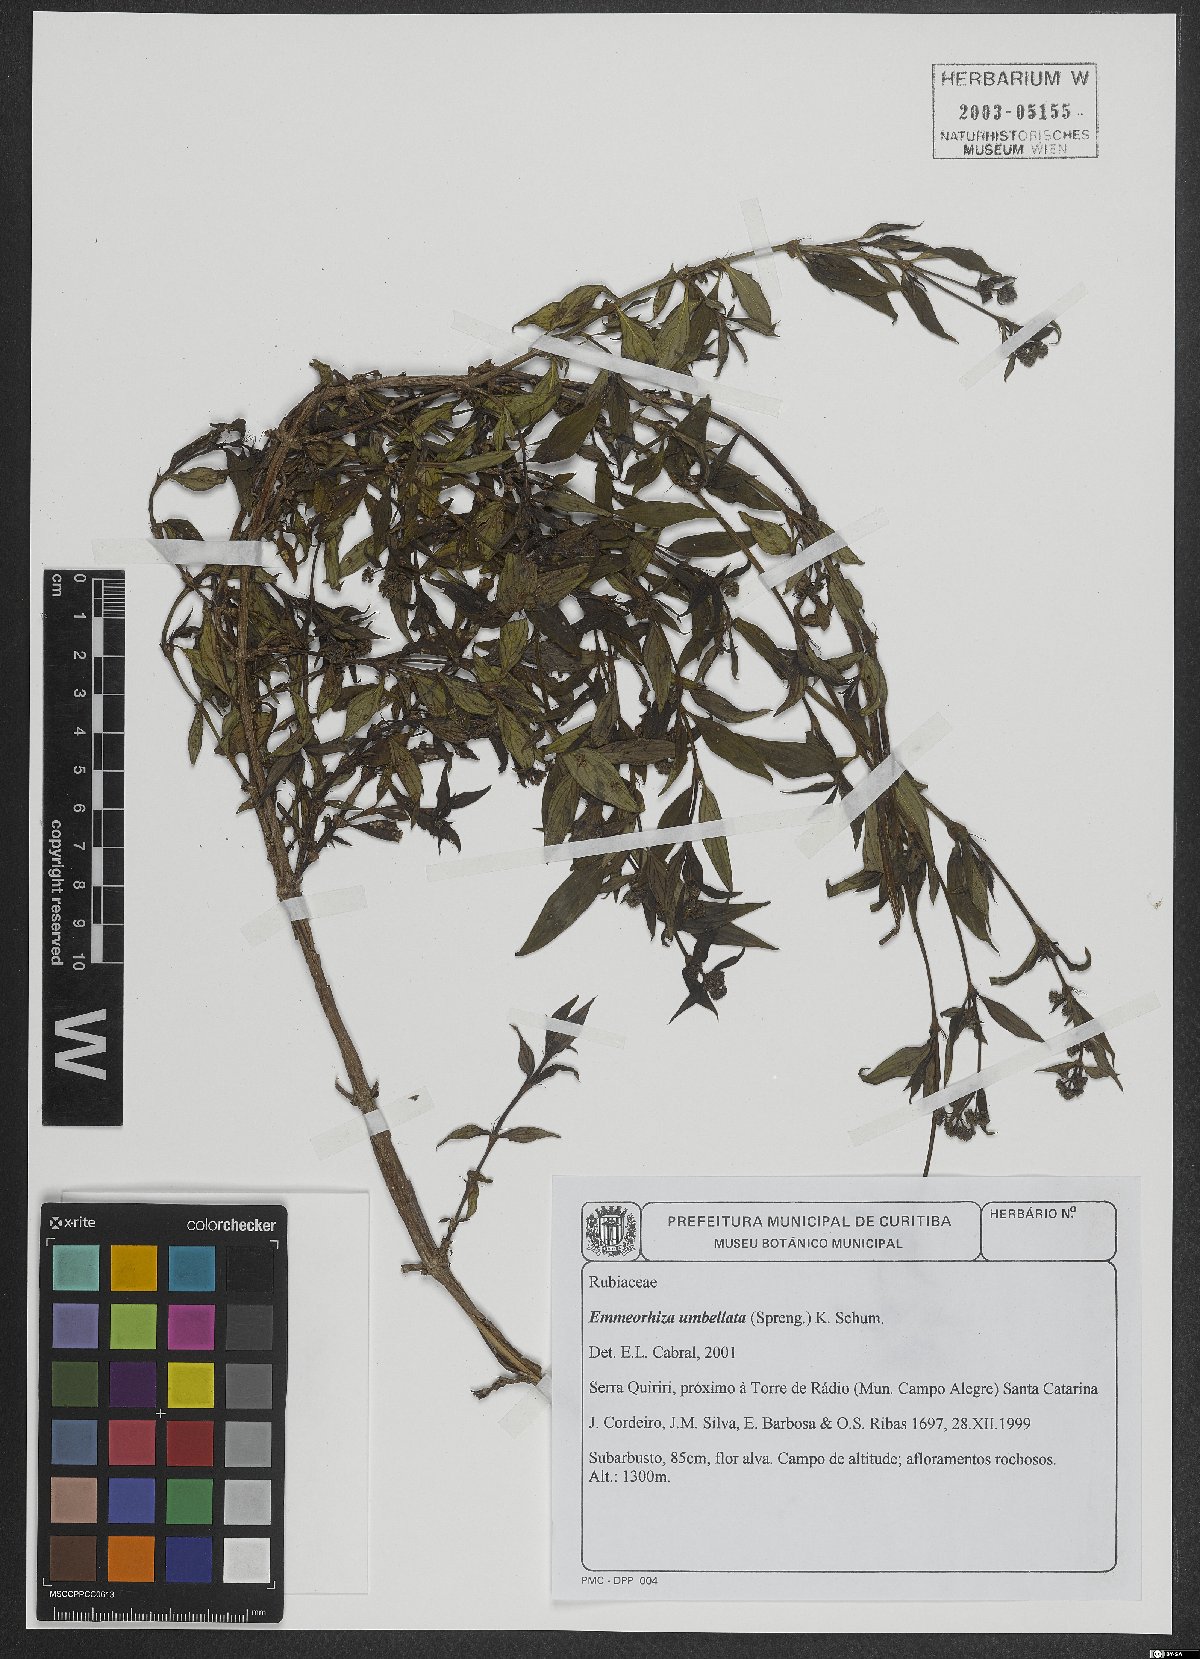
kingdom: Plantae
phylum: Tracheophyta
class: Magnoliopsida
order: Gentianales
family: Rubiaceae
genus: Emmeorhiza
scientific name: Emmeorhiza umbellata
